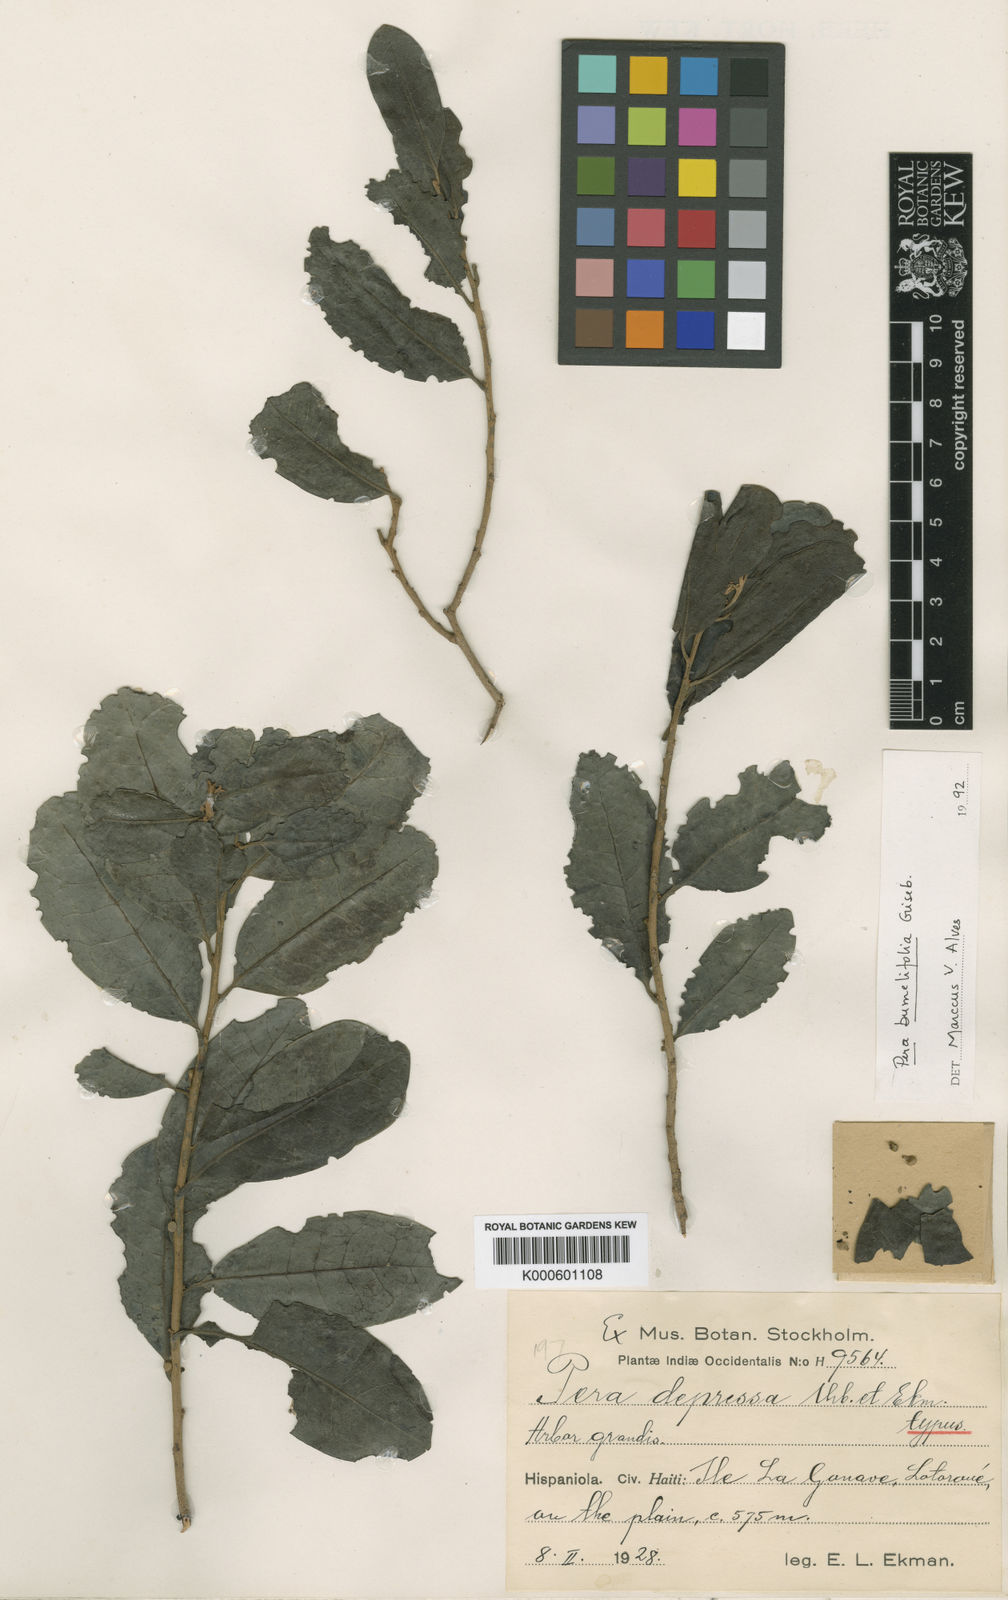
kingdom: Plantae
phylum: Tracheophyta
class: Magnoliopsida
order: Malpighiales
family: Peraceae
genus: Pera
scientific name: Pera bumeliifolia
